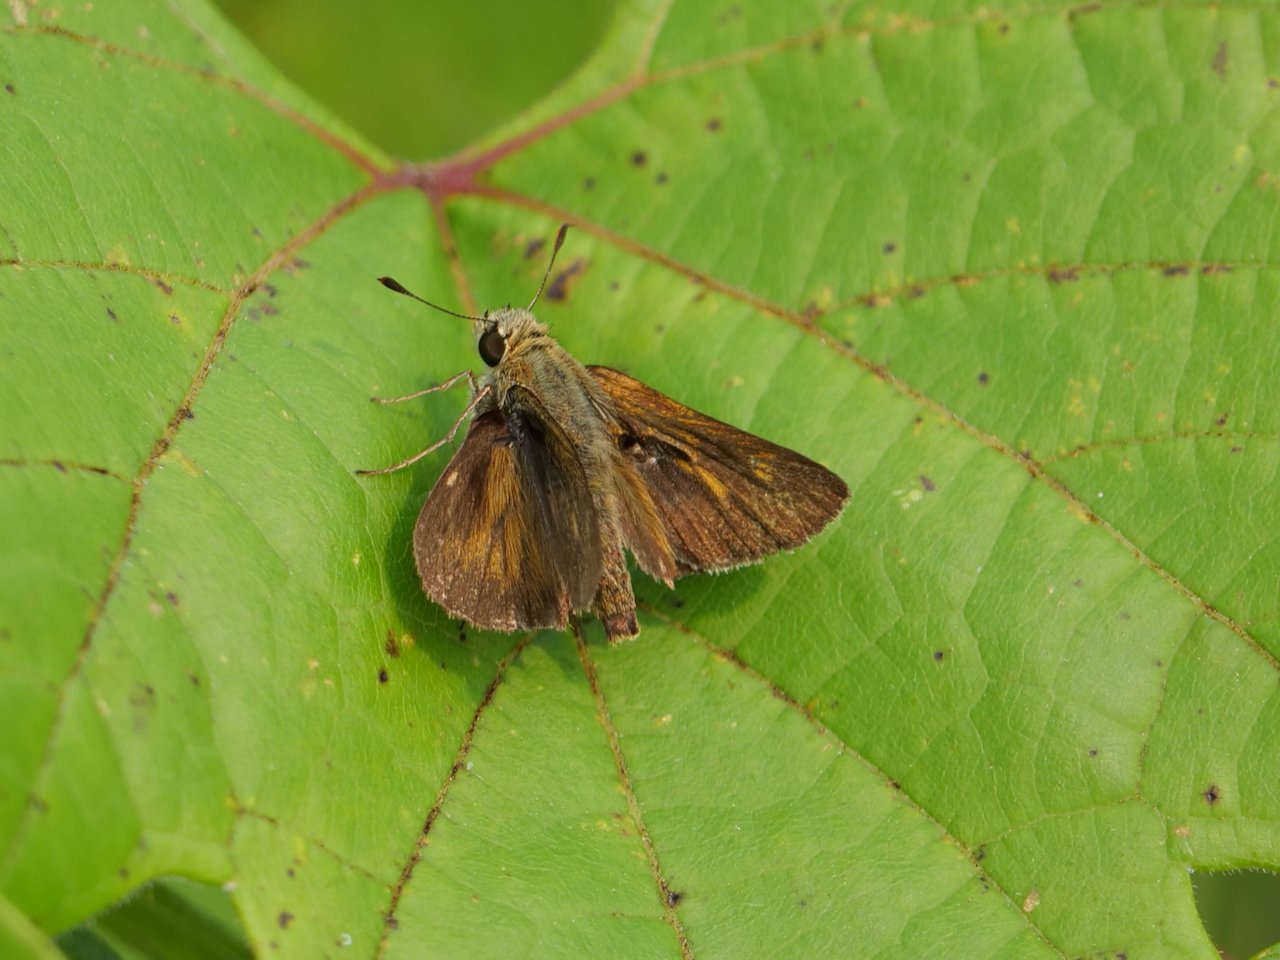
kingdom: Animalia
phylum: Arthropoda
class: Insecta
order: Lepidoptera
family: Hesperiidae
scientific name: Hesperiidae
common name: Skippers
